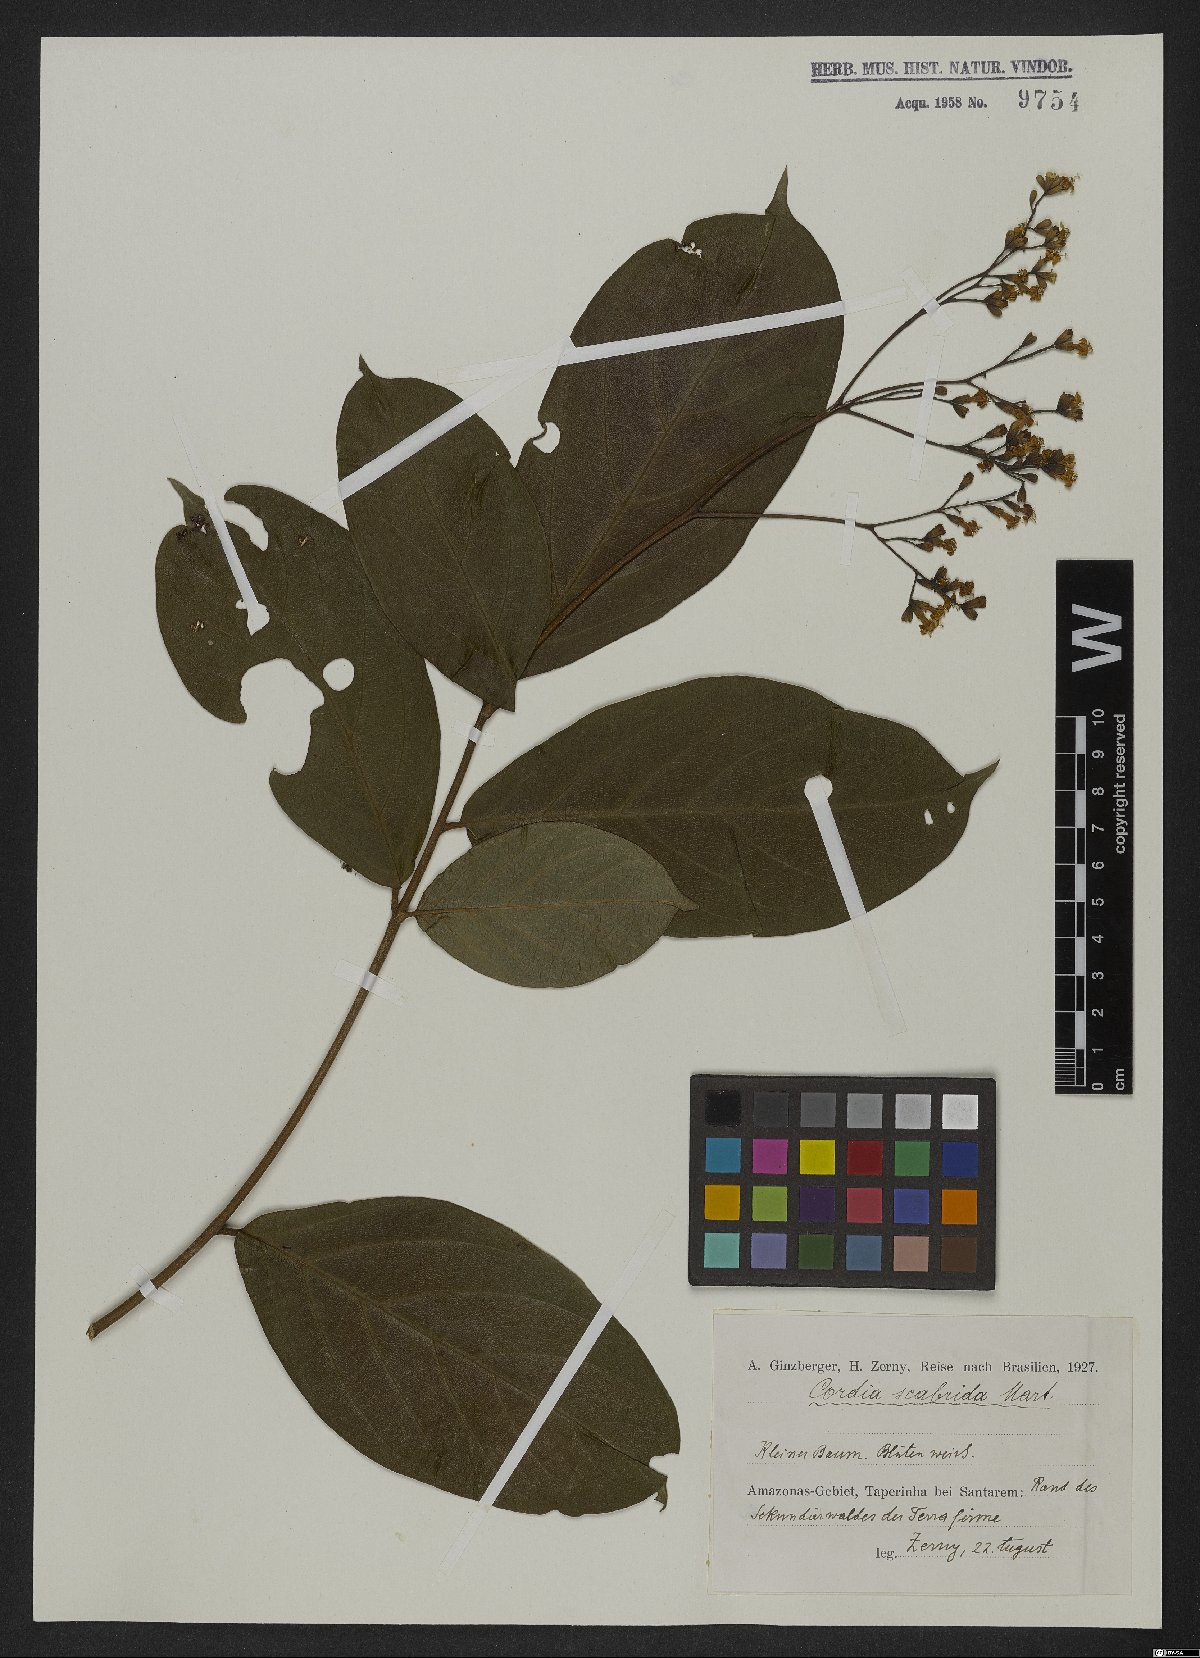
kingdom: Plantae
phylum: Tracheophyta
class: Magnoliopsida
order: Boraginales
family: Cordiaceae
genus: Cordia
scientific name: Cordia exaltata
